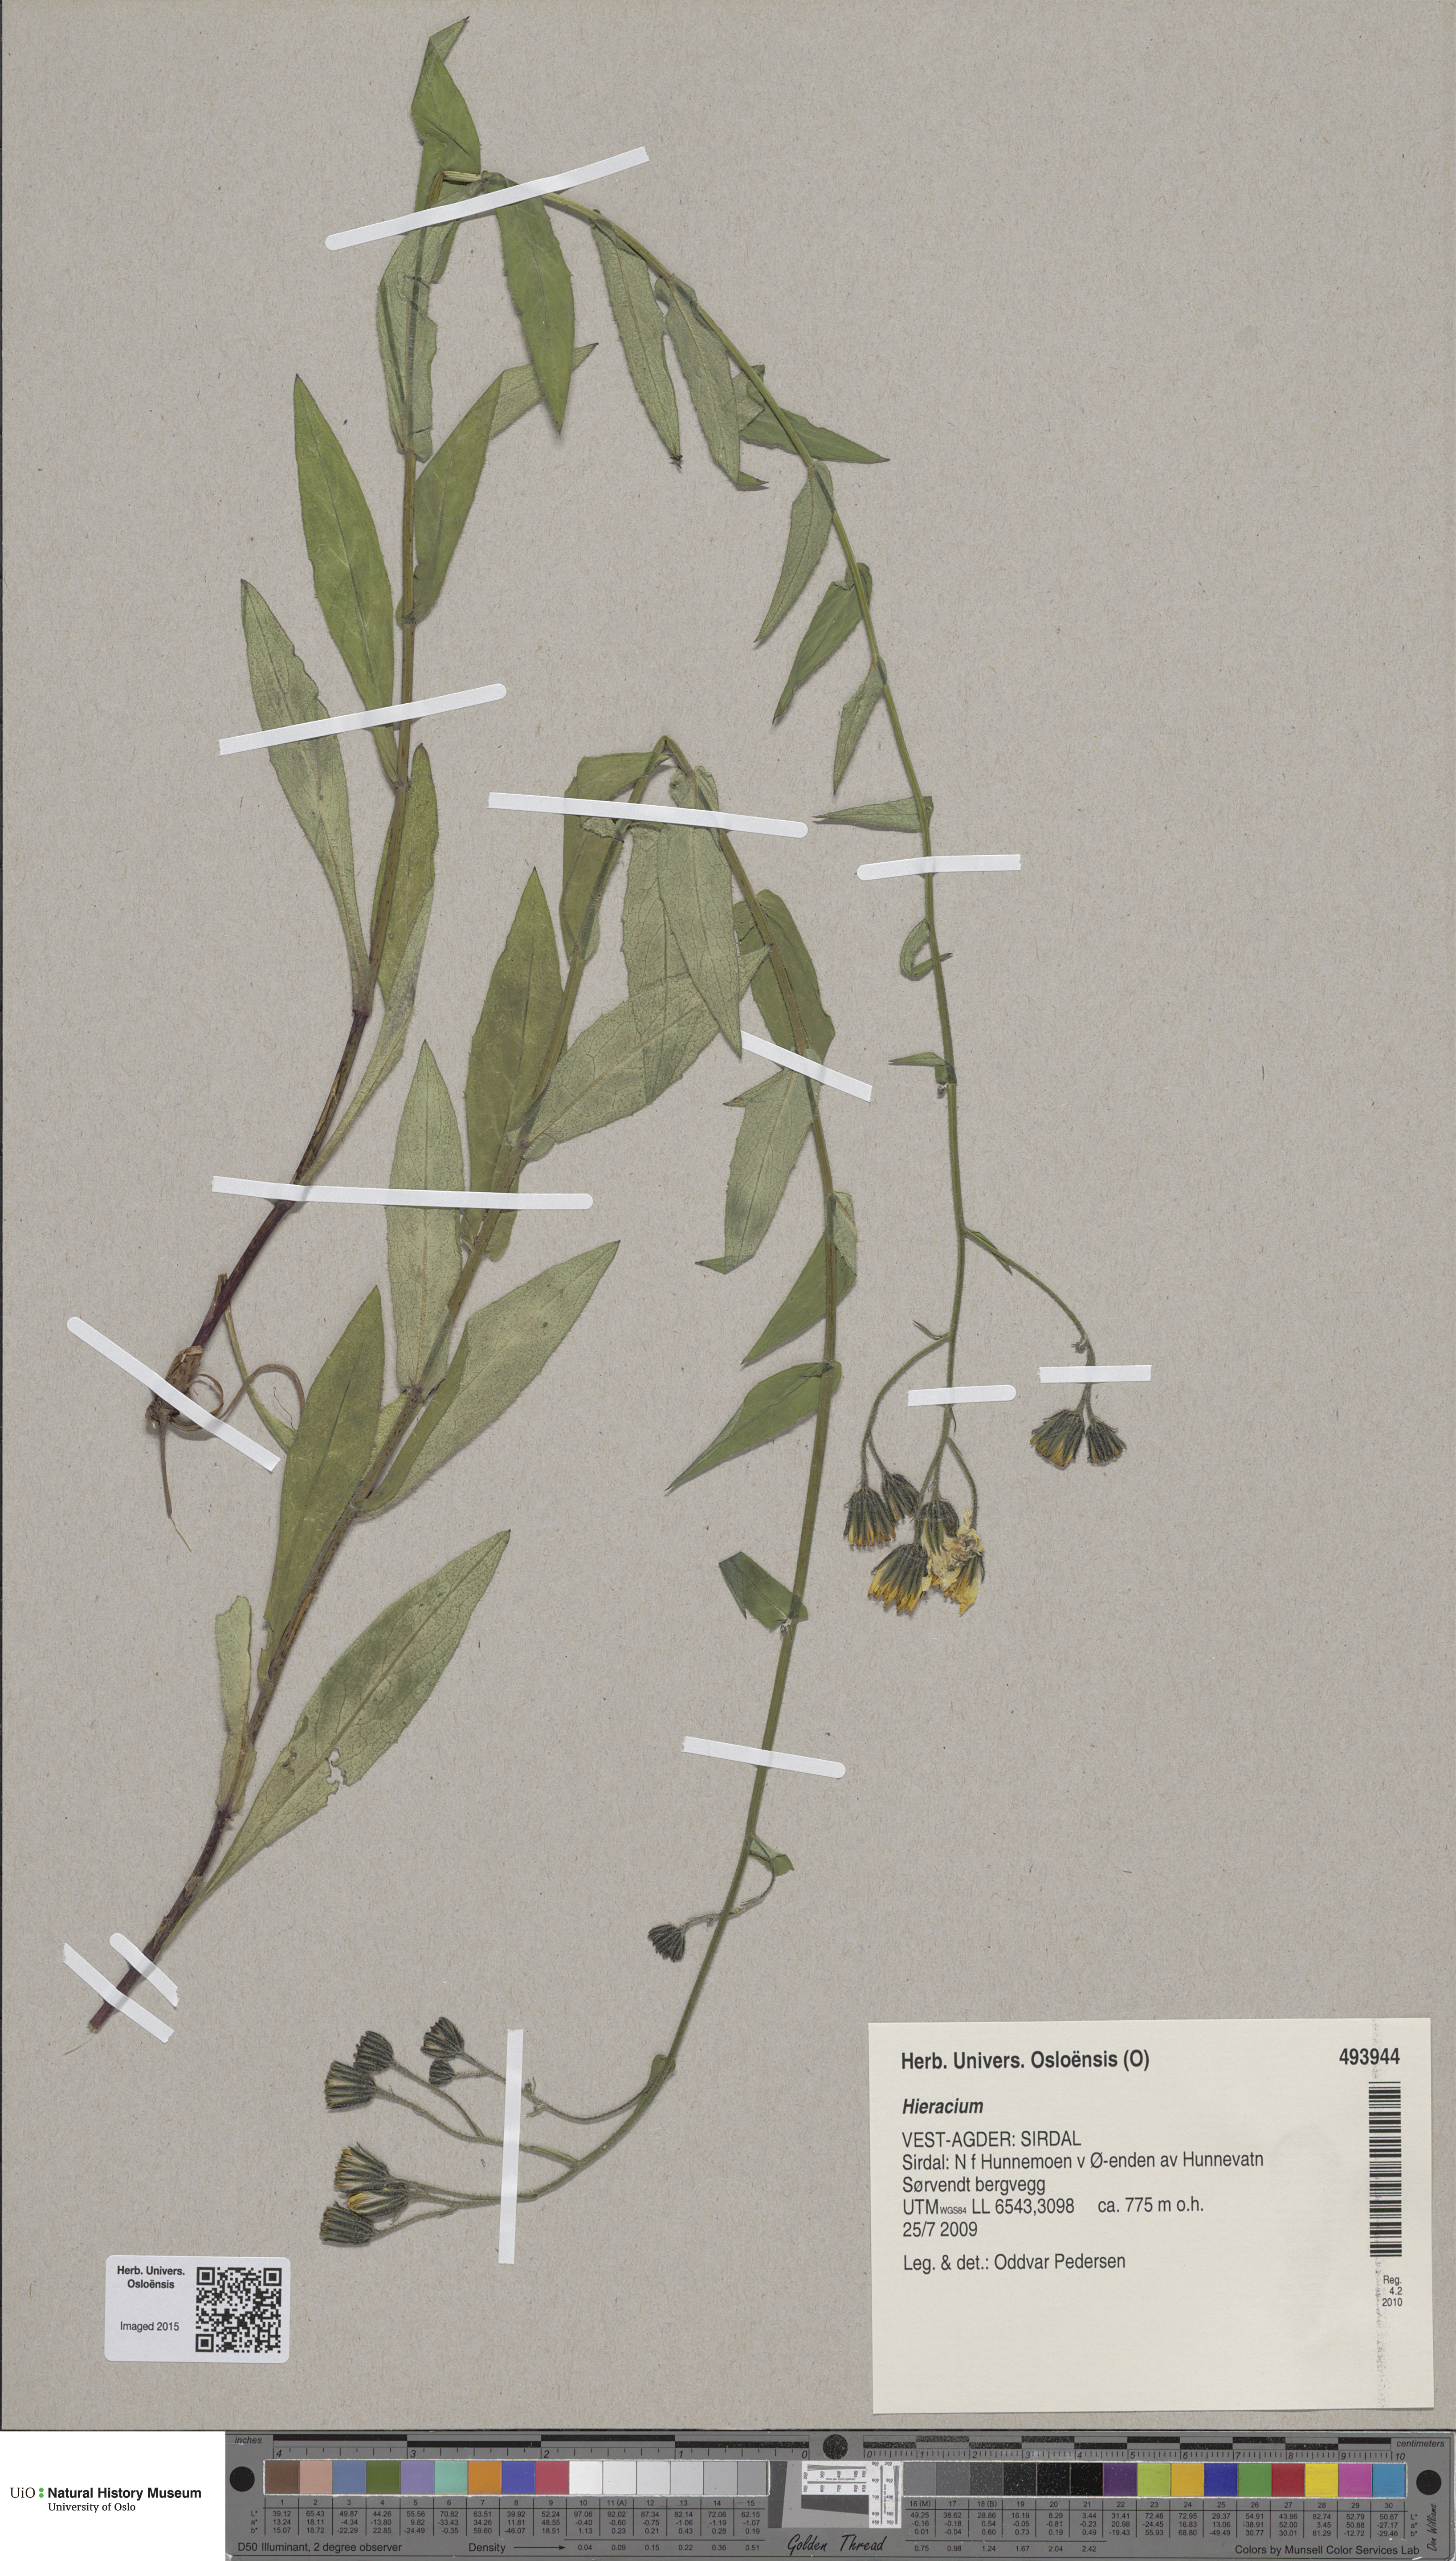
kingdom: Plantae
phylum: Tracheophyta
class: Magnoliopsida
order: Asterales
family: Asteraceae
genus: Hieracium
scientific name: Hieracium
